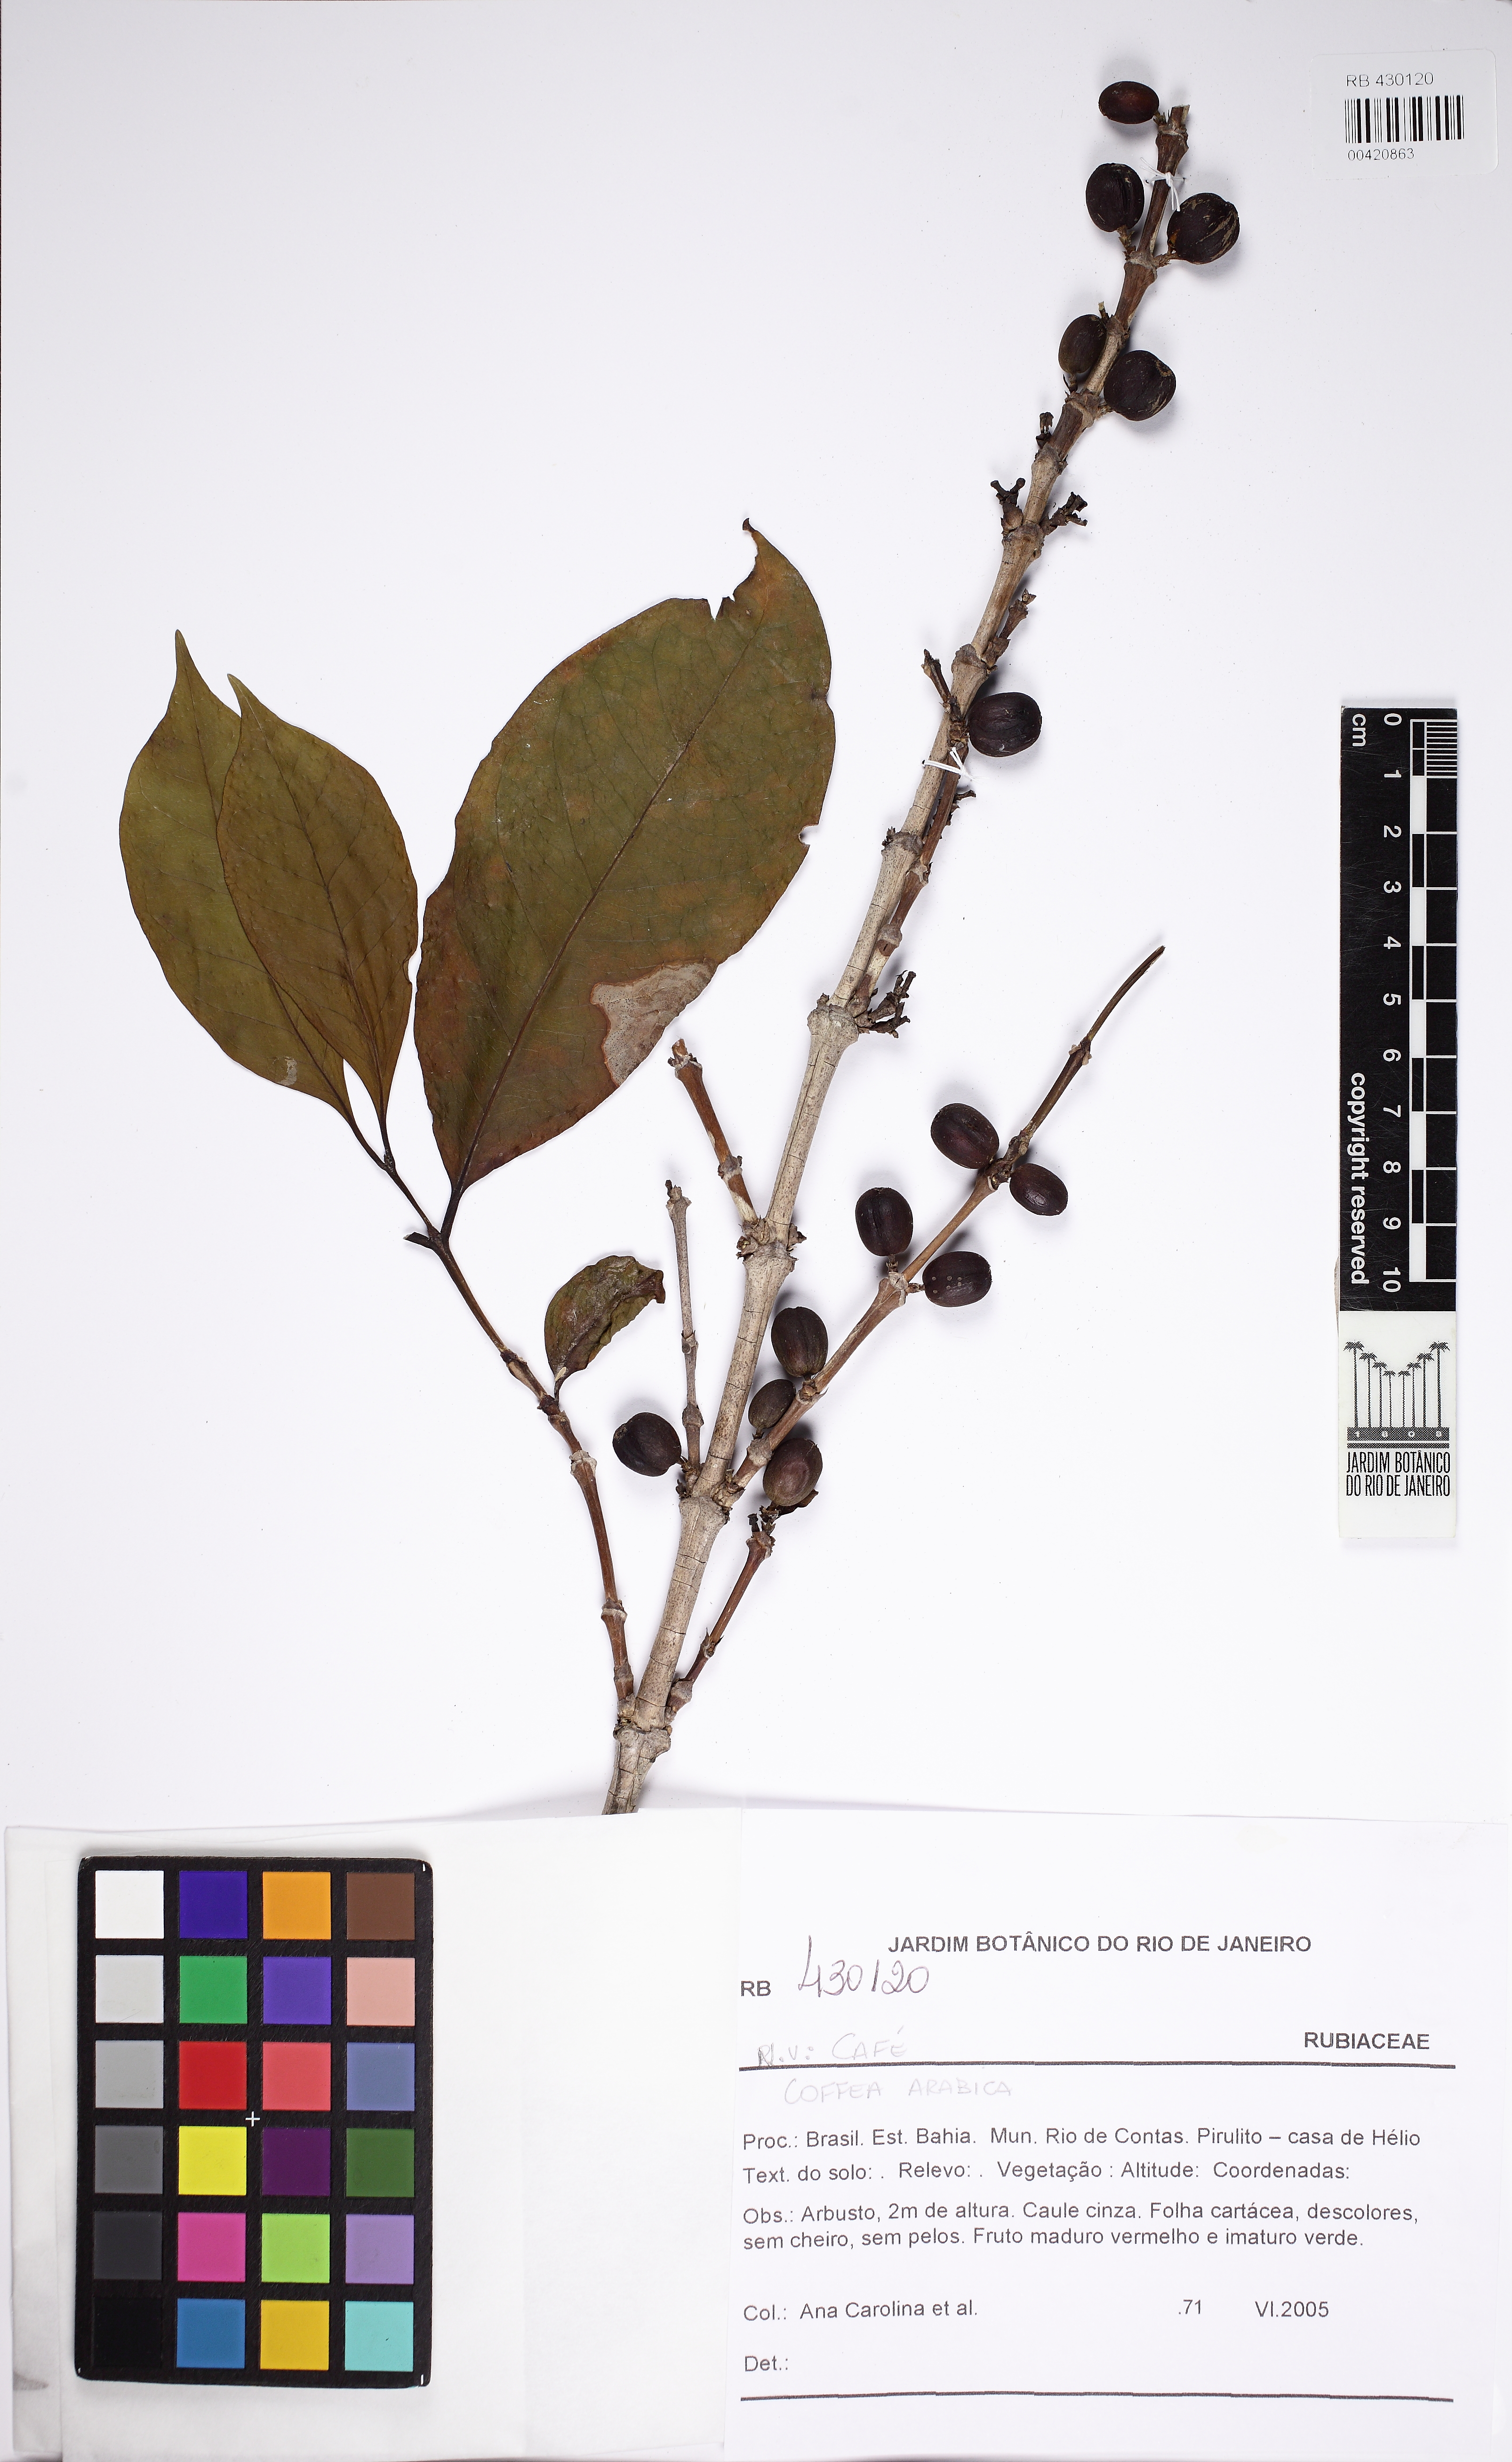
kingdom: Plantae
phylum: Tracheophyta
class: Magnoliopsida
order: Gentianales
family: Rubiaceae
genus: Coffea
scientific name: Coffea arabica
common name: Coffee
